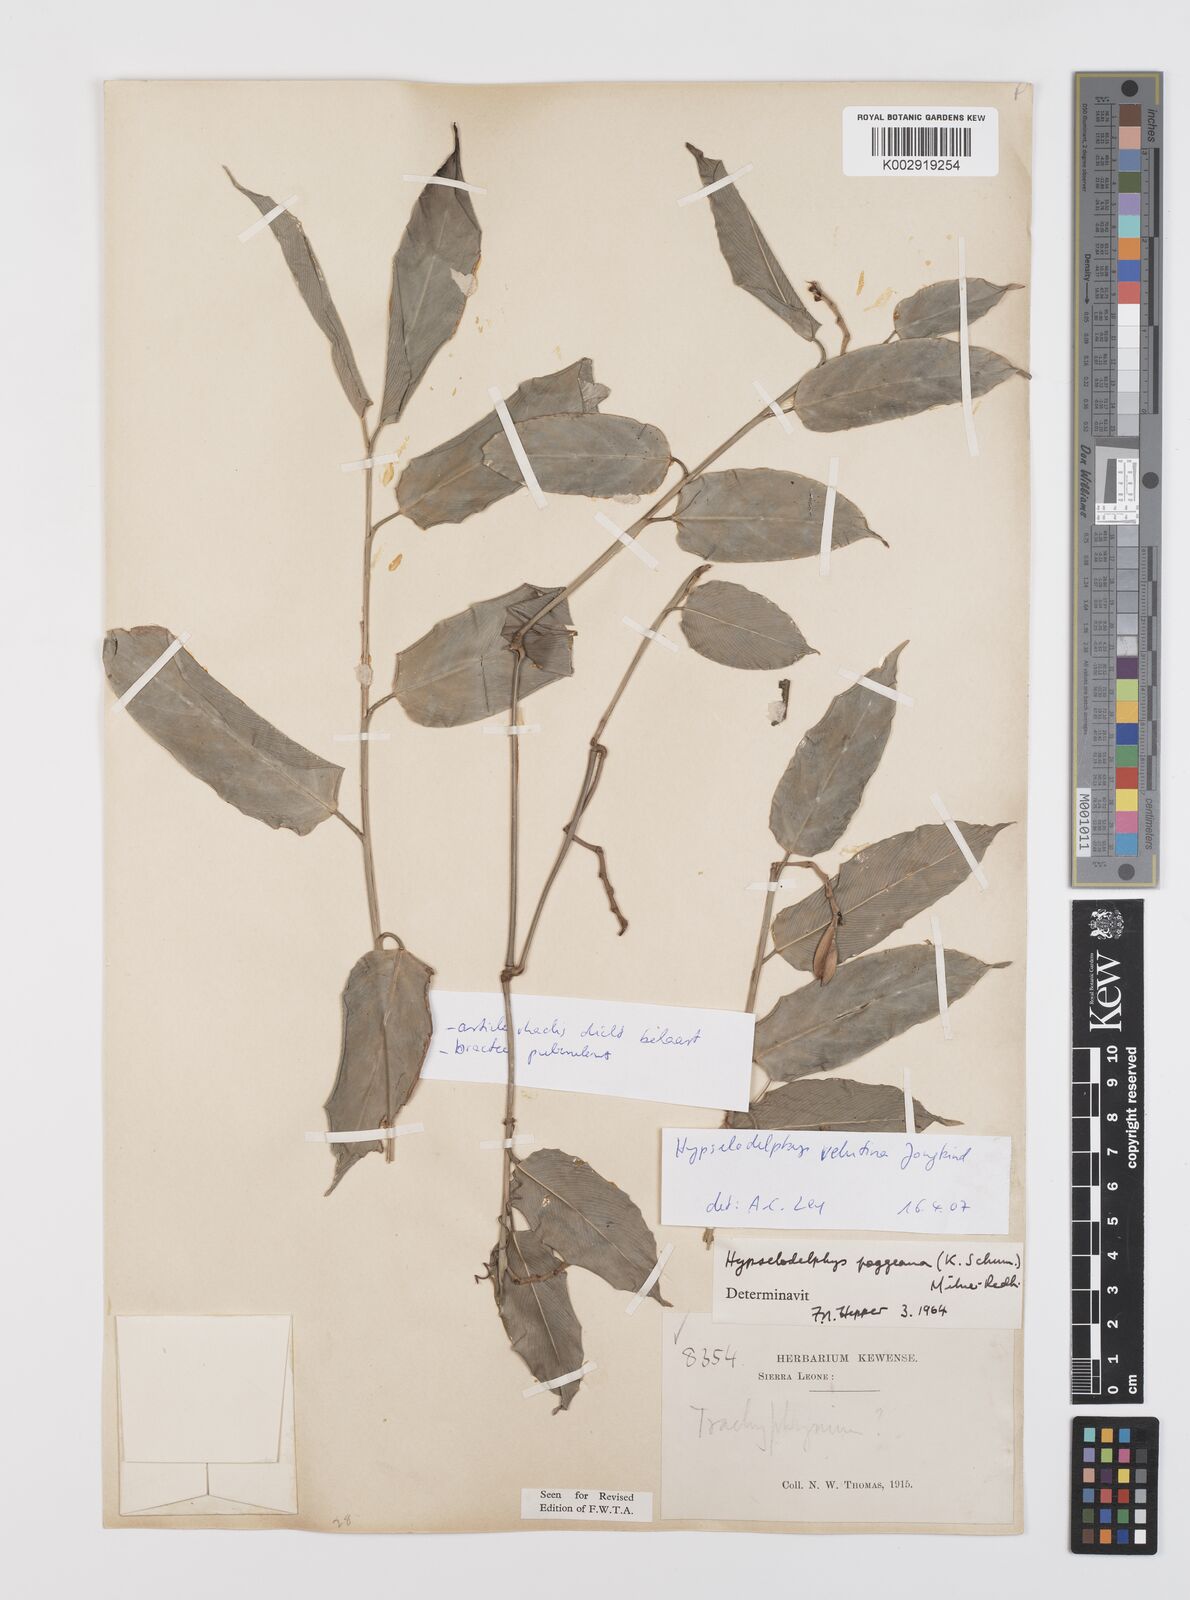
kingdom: Plantae
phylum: Tracheophyta
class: Liliopsida
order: Zingiberales
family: Marantaceae
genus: Hypselodelphys
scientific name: Hypselodelphys velutina
